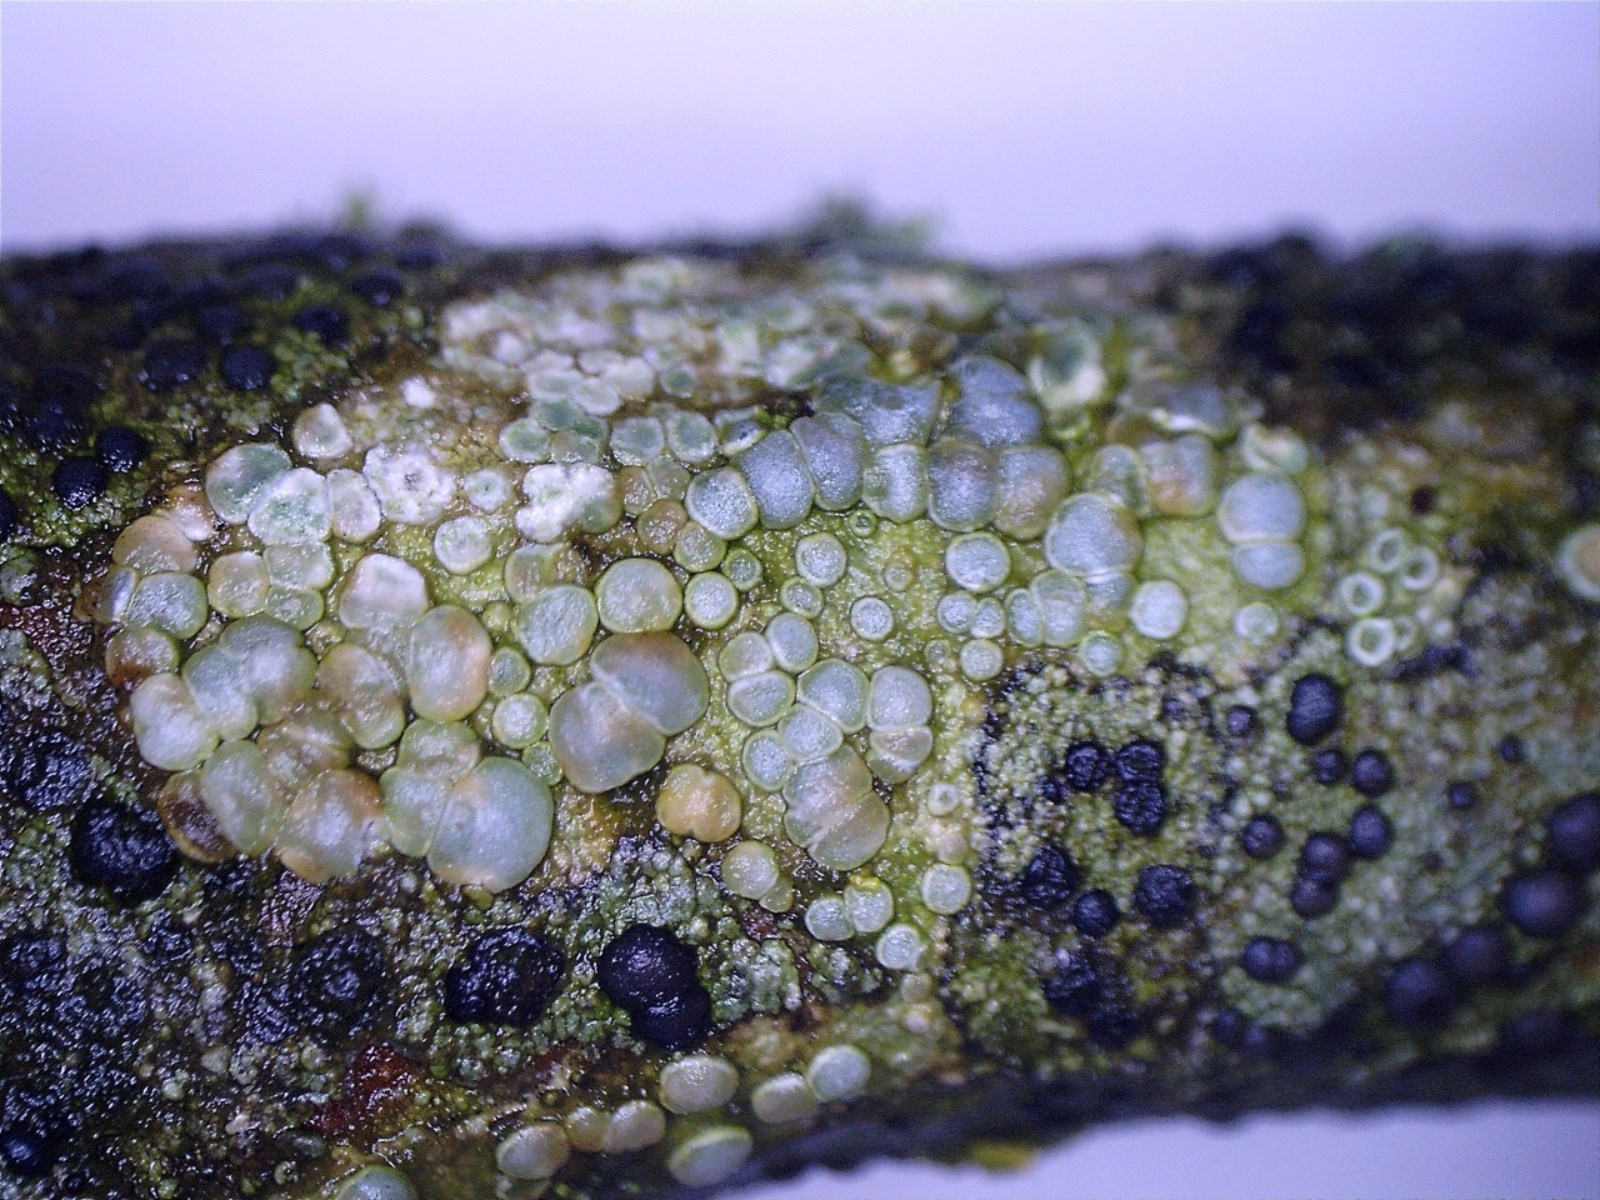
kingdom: Fungi
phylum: Ascomycota
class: Lecanoromycetes
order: Lecanorales
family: Lecanoraceae
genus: Glaucomaria
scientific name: Glaucomaria carpinea
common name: hviddugget kantskivelav
